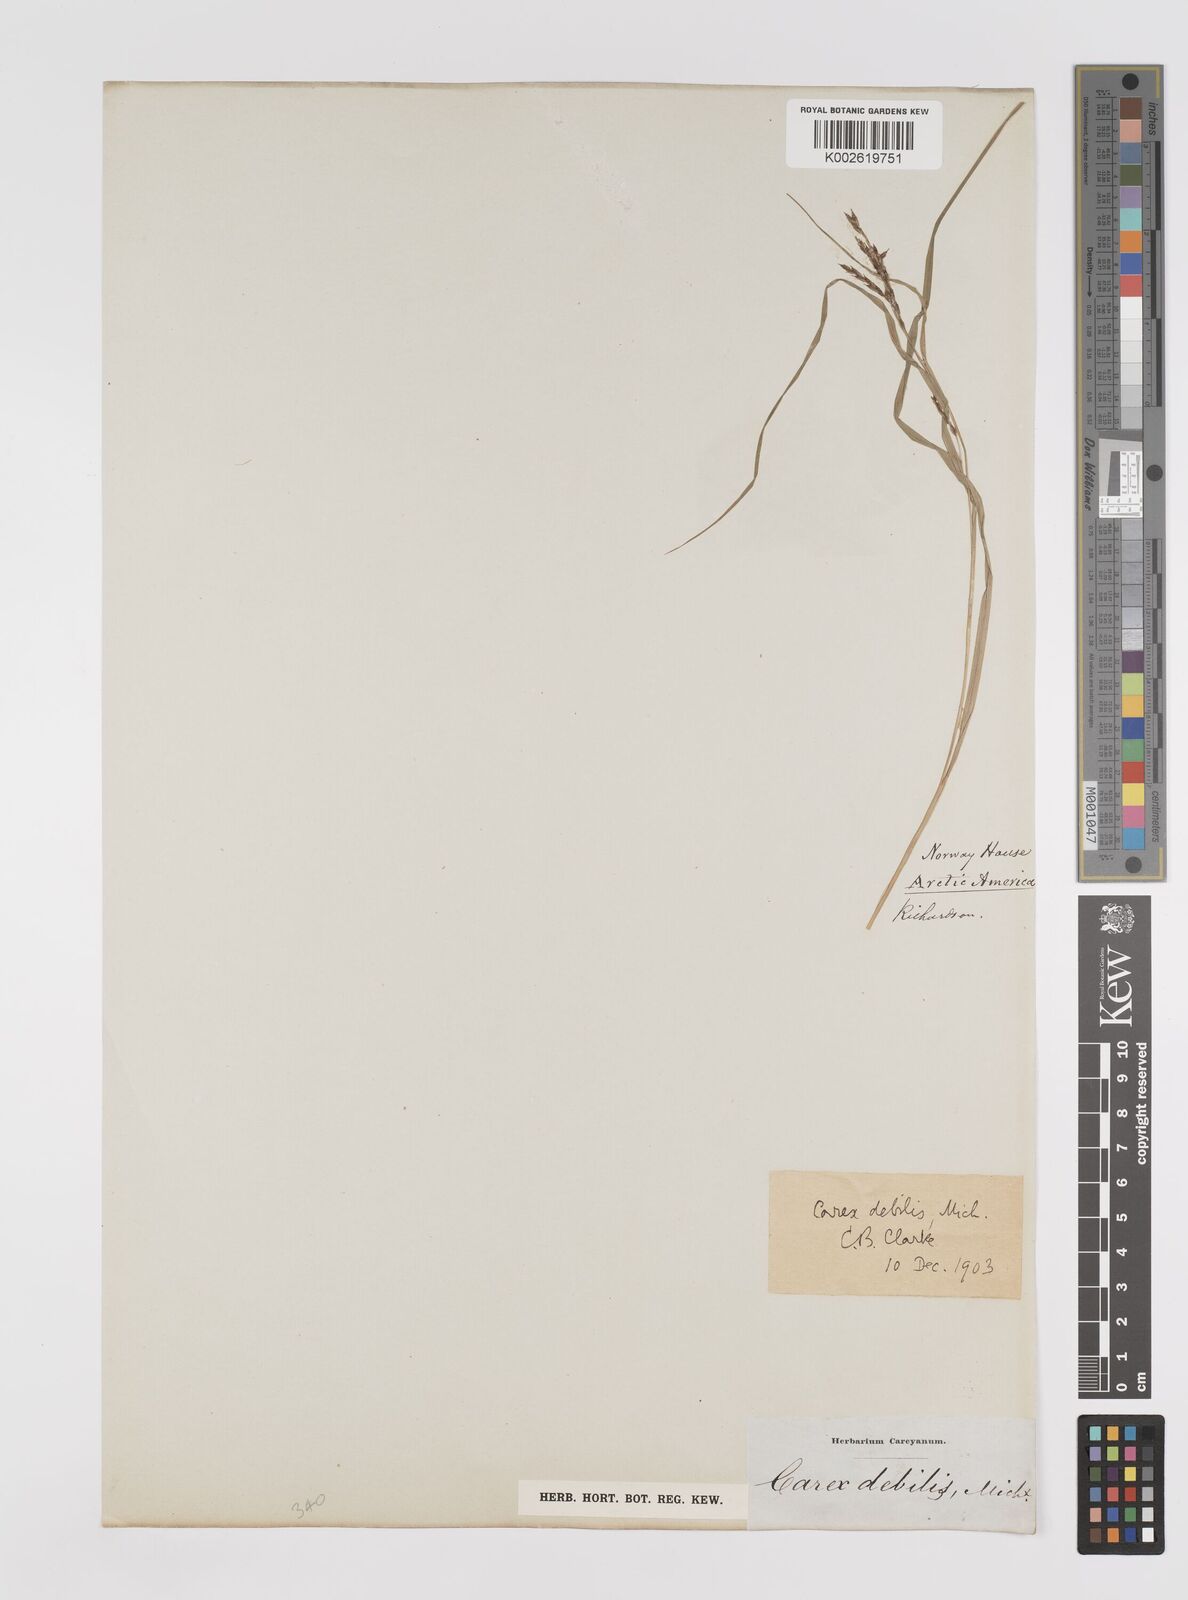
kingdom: Plantae
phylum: Tracheophyta
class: Liliopsida
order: Poales
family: Cyperaceae
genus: Carex
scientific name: Carex debilis
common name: White-edge sedge
